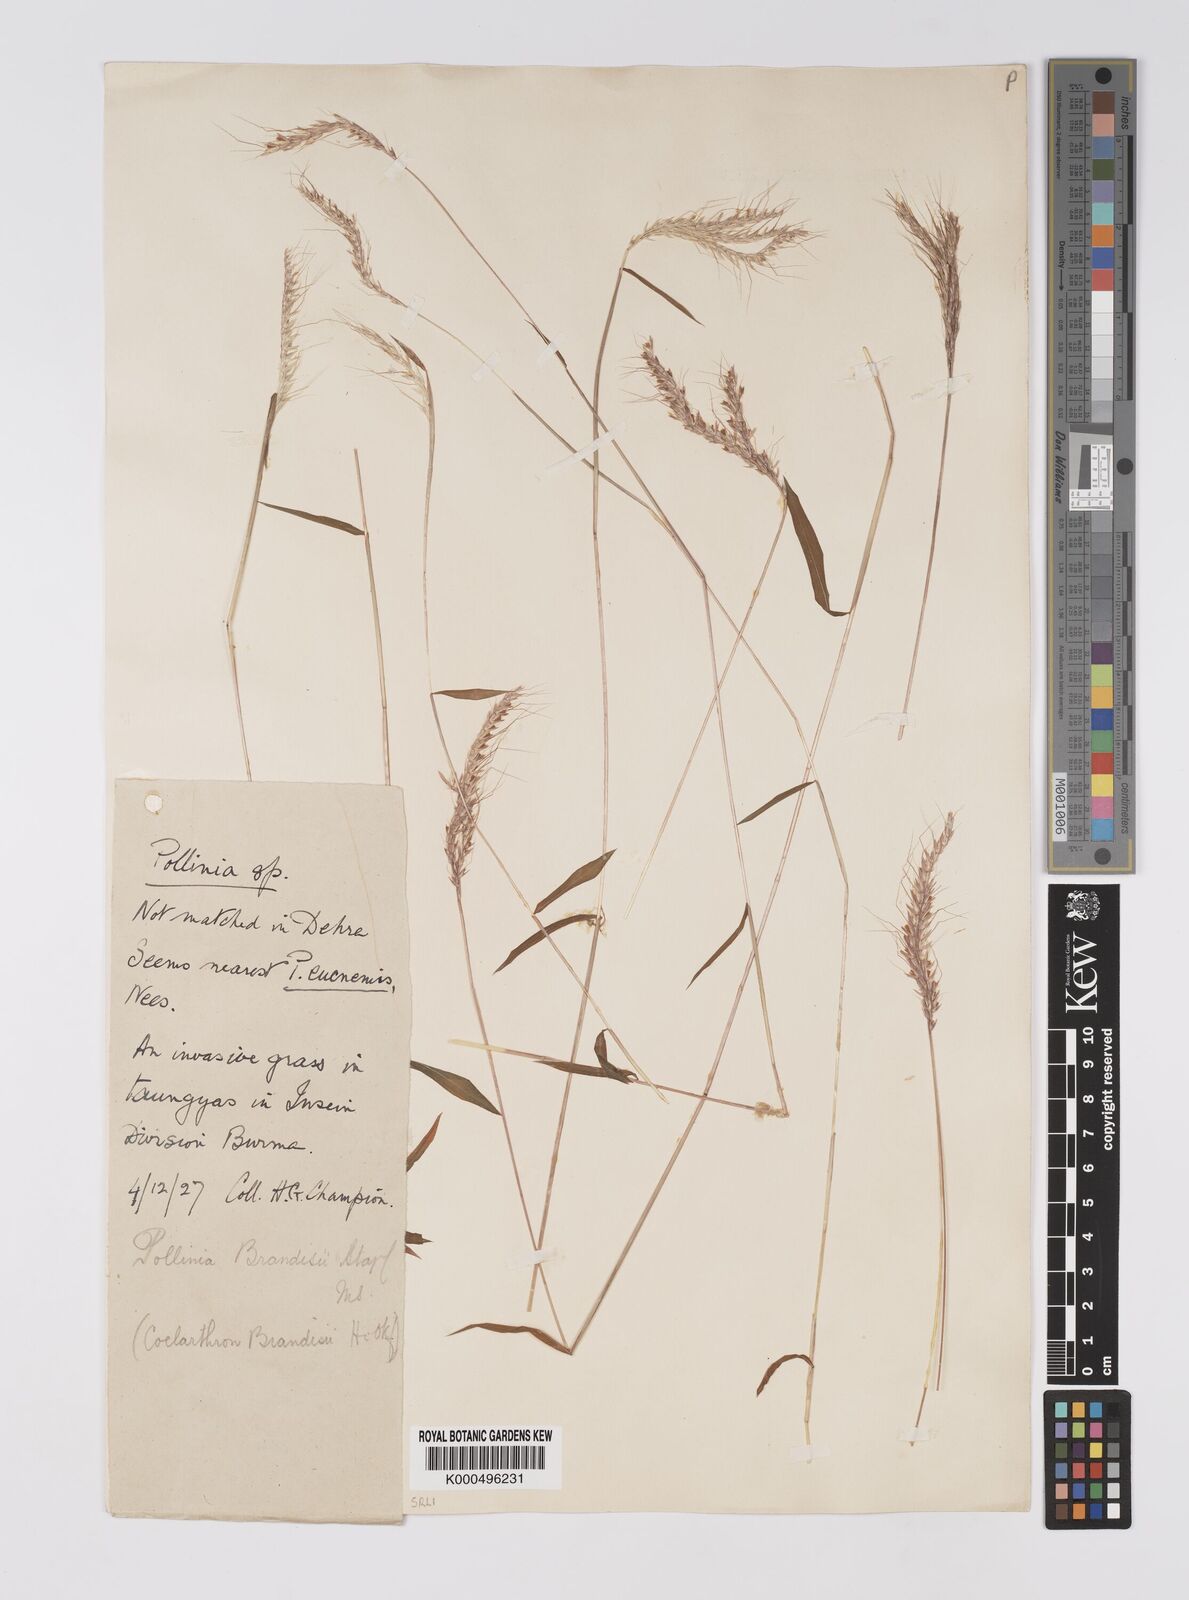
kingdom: Plantae
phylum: Tracheophyta
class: Liliopsida
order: Poales
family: Poaceae
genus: Microstegium
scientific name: Microstegium eucnemis
